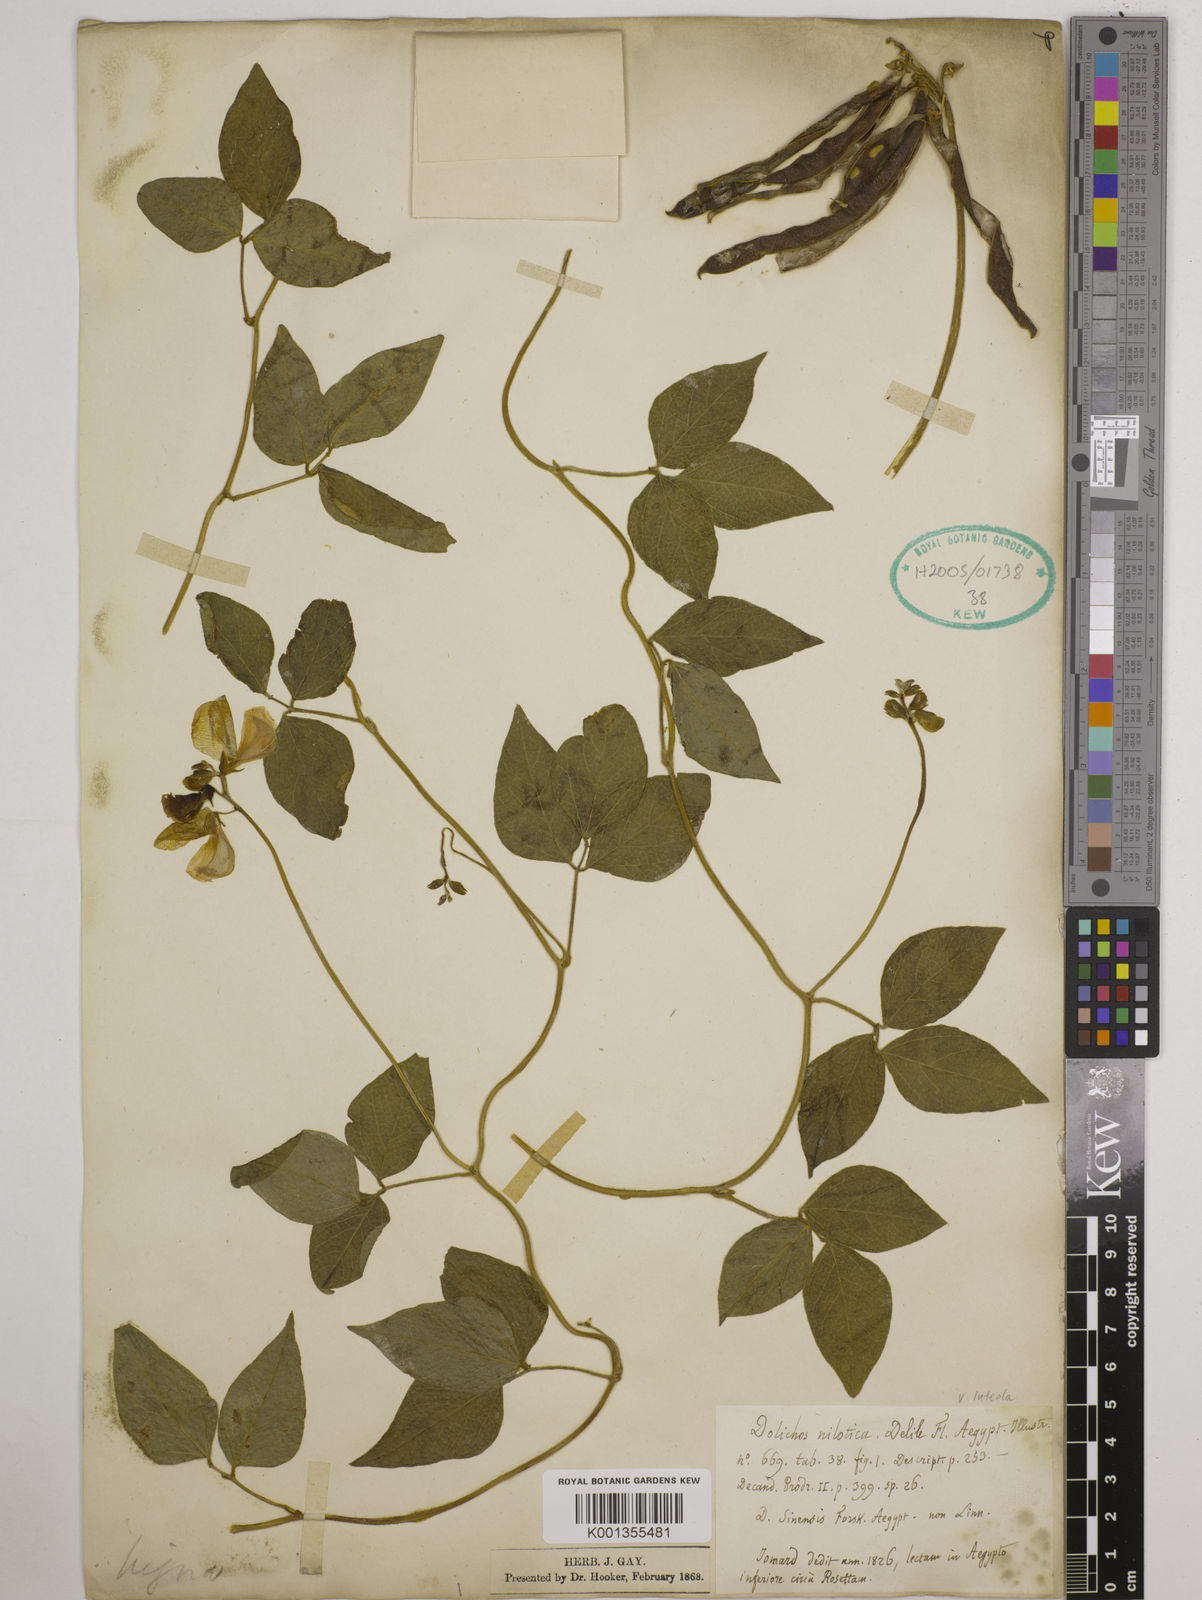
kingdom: Plantae
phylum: Tracheophyta
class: Magnoliopsida
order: Fabales
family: Fabaceae
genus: Vigna
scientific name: Vigna luteola
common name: Hairypod cowpea
